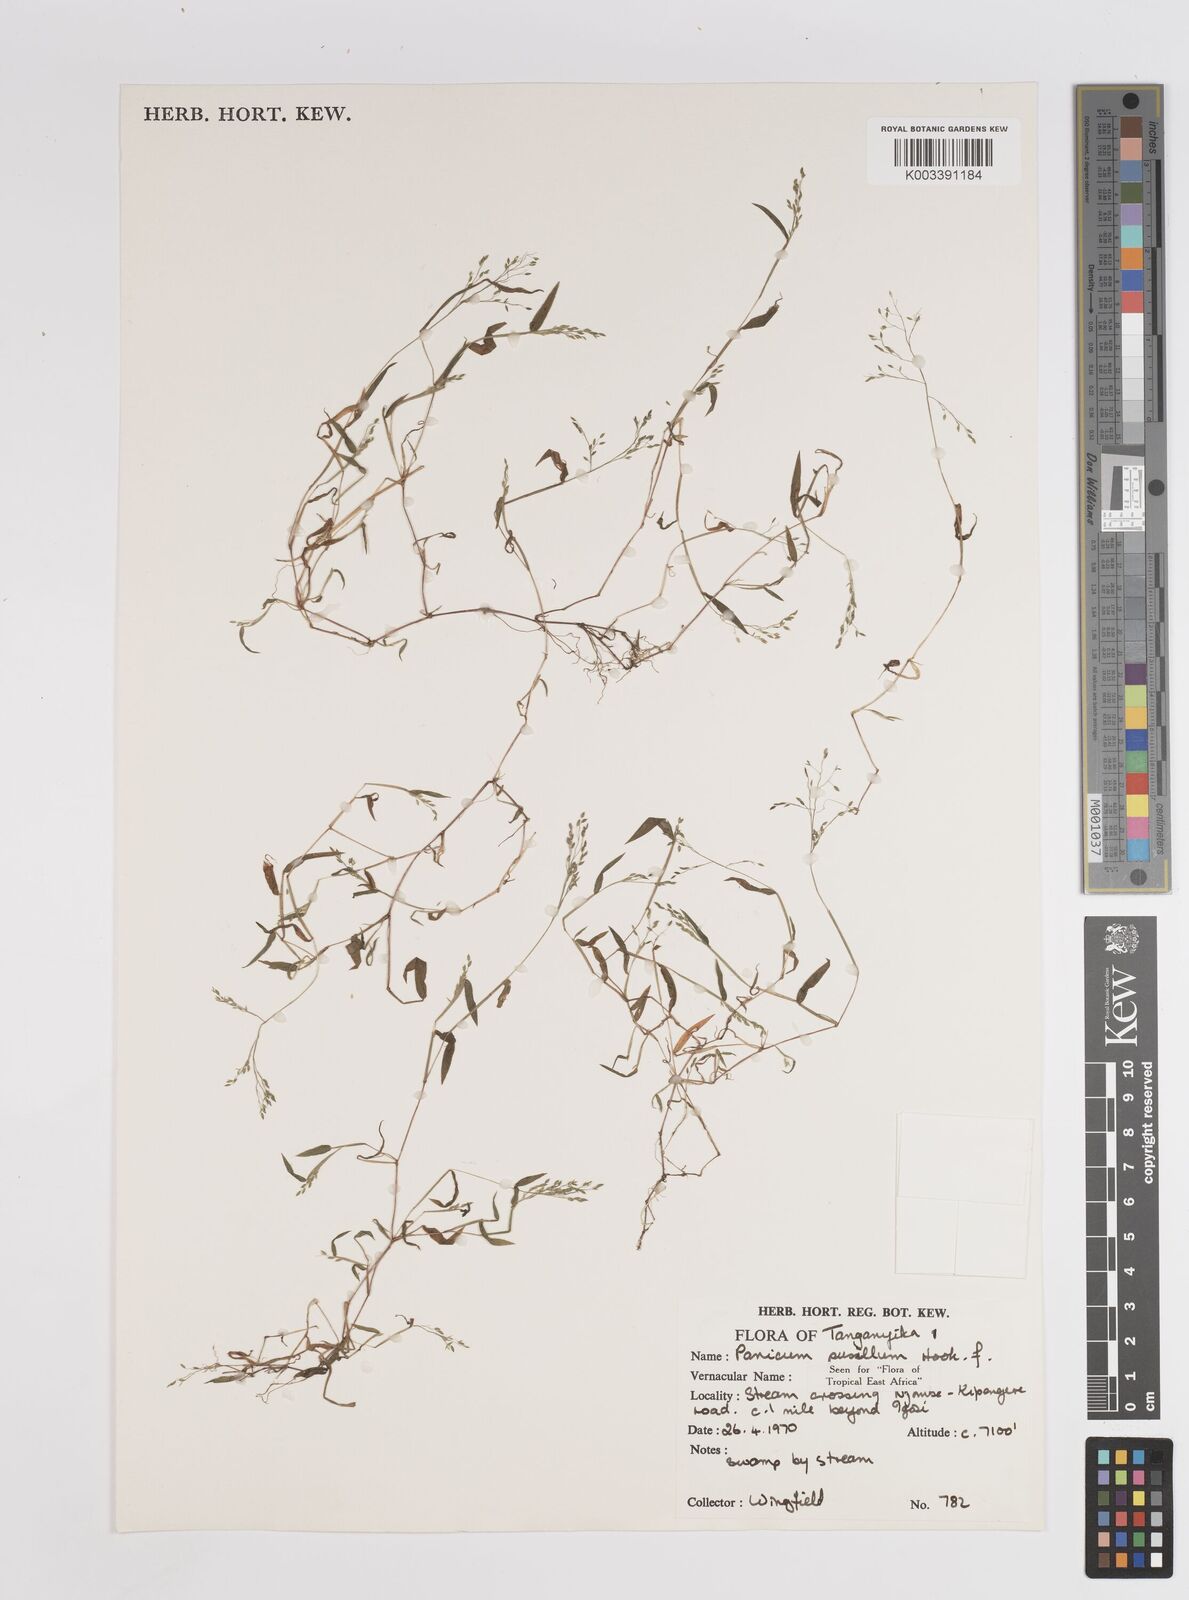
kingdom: Plantae
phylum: Tracheophyta
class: Liliopsida
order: Poales
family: Poaceae
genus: Panicum
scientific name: Panicum pusillum
